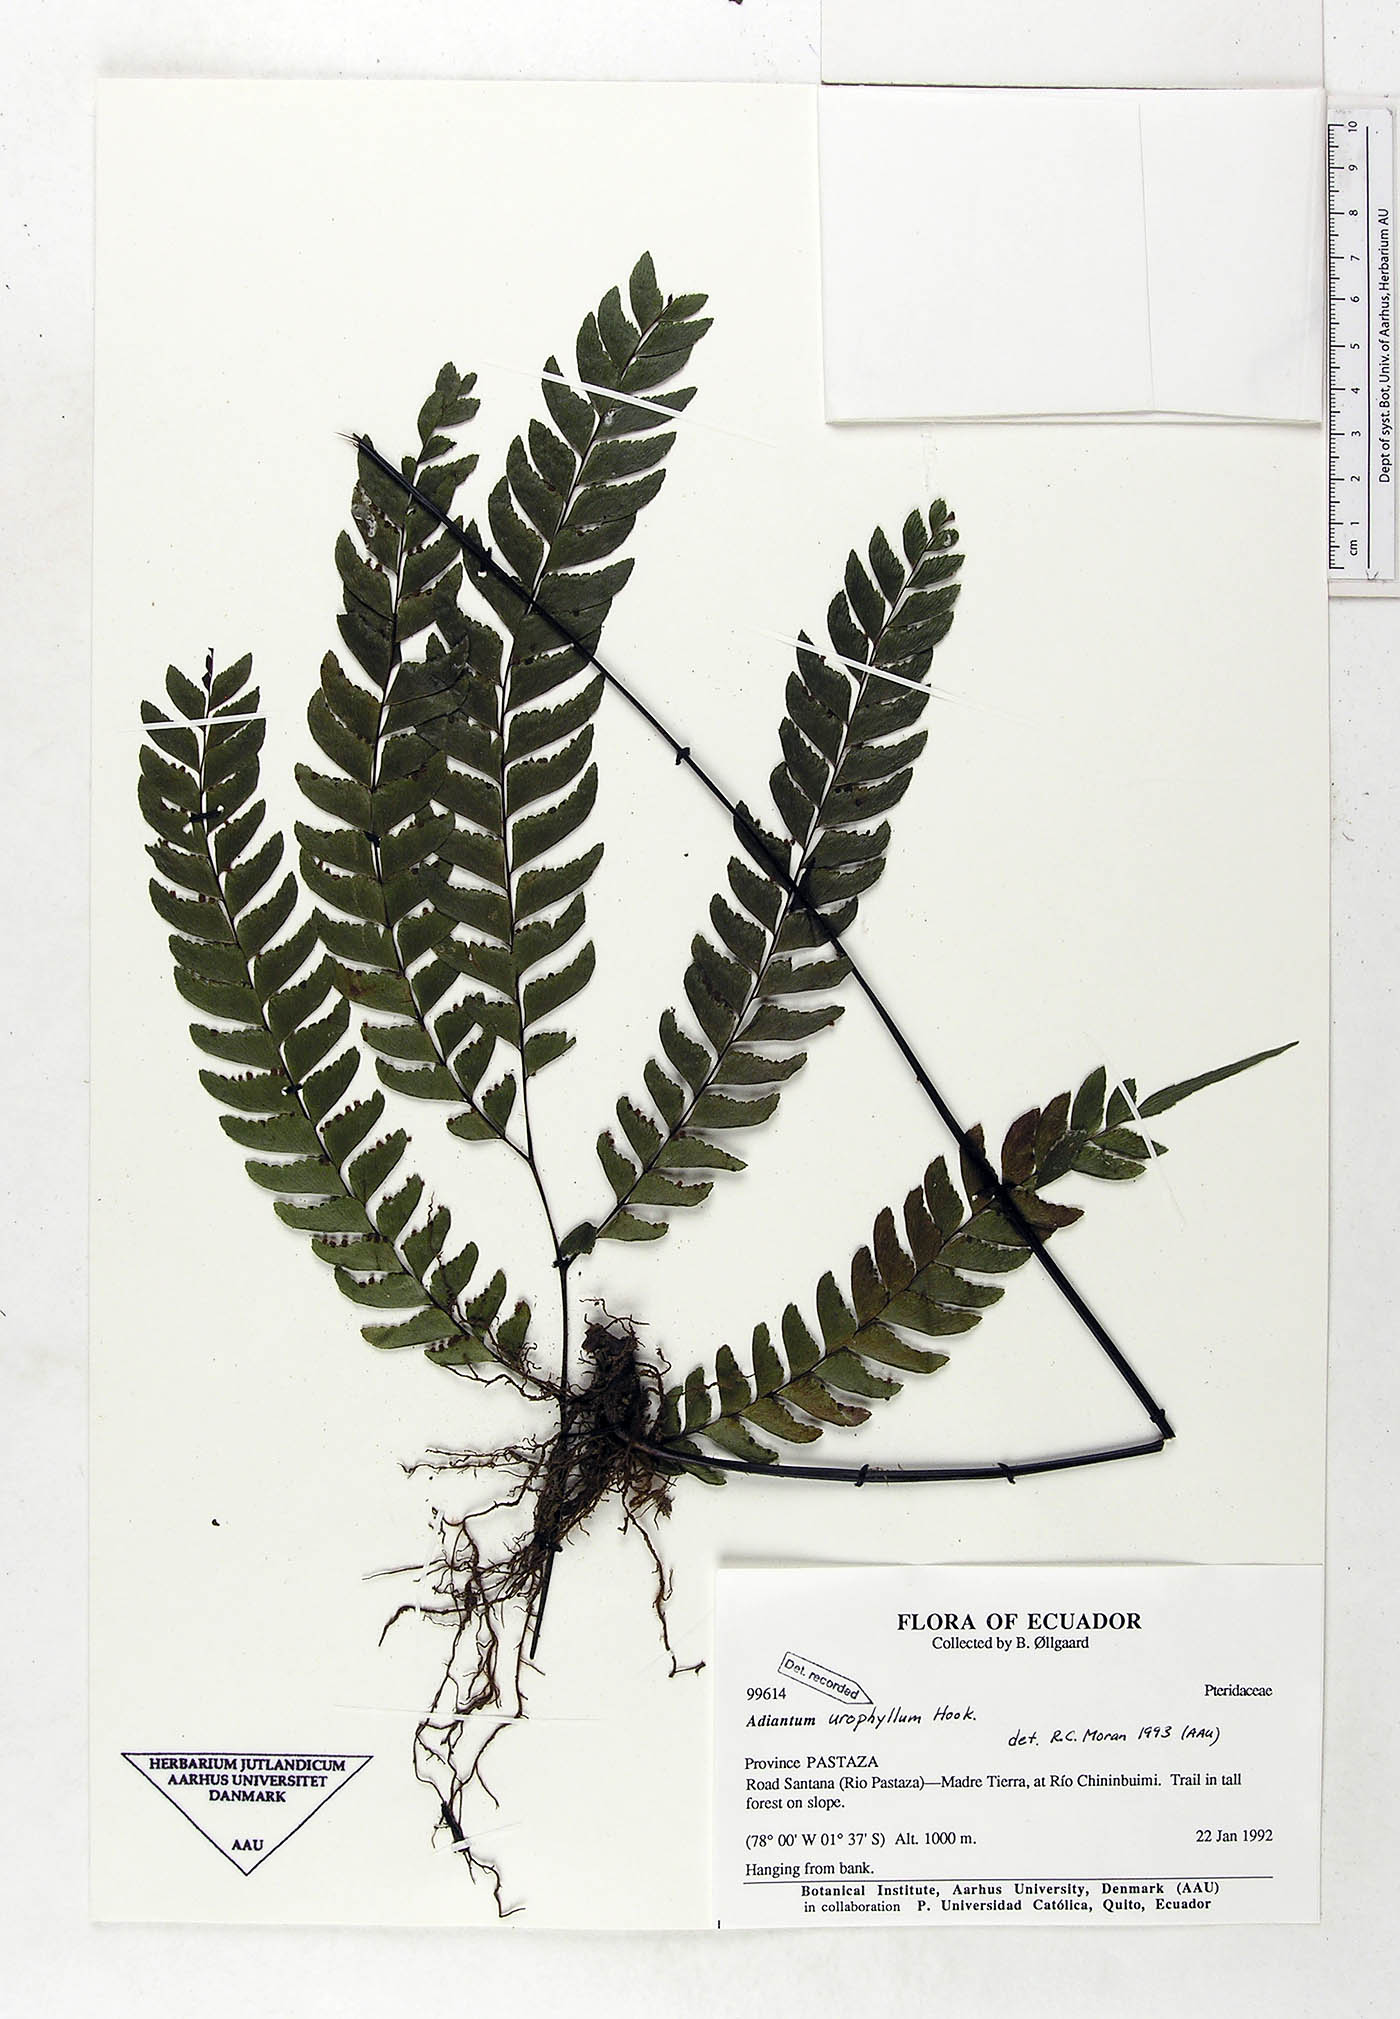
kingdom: Plantae
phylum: Tracheophyta
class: Polypodiopsida
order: Polypodiales
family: Pteridaceae
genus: Adiantum
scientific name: Adiantum urophyllum
